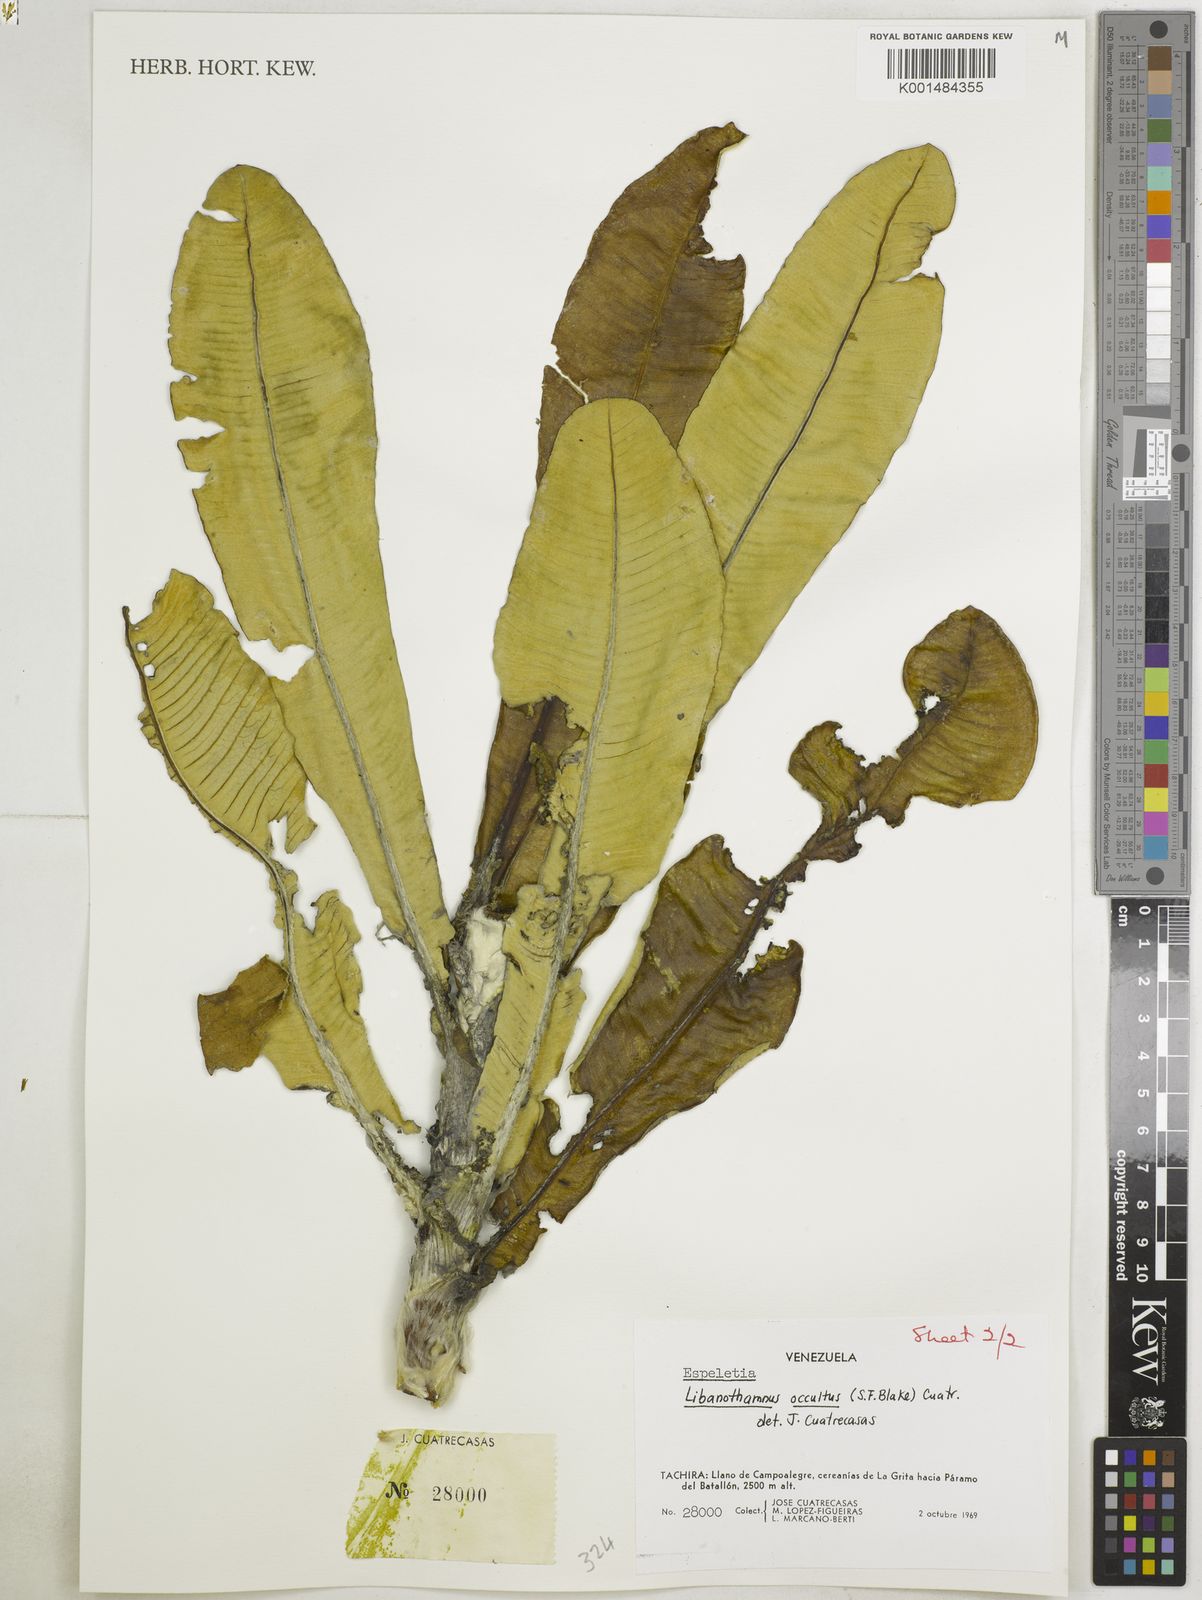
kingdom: Plantae
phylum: Tracheophyta
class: Magnoliopsida
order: Asterales
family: Asteraceae
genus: Espeletia
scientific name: Espeletia occulta
